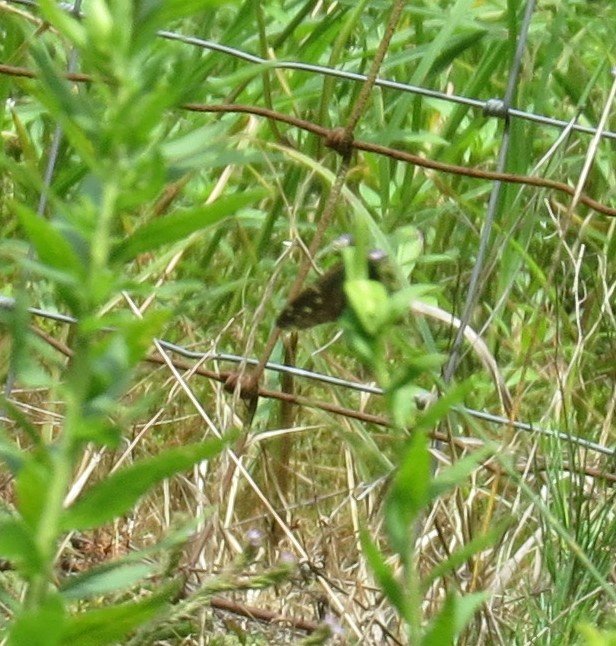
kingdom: Animalia
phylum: Arthropoda
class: Insecta
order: Lepidoptera
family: Hesperiidae
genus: Urbanus
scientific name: Urbanus proteus
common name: Long-tailed Skipper
